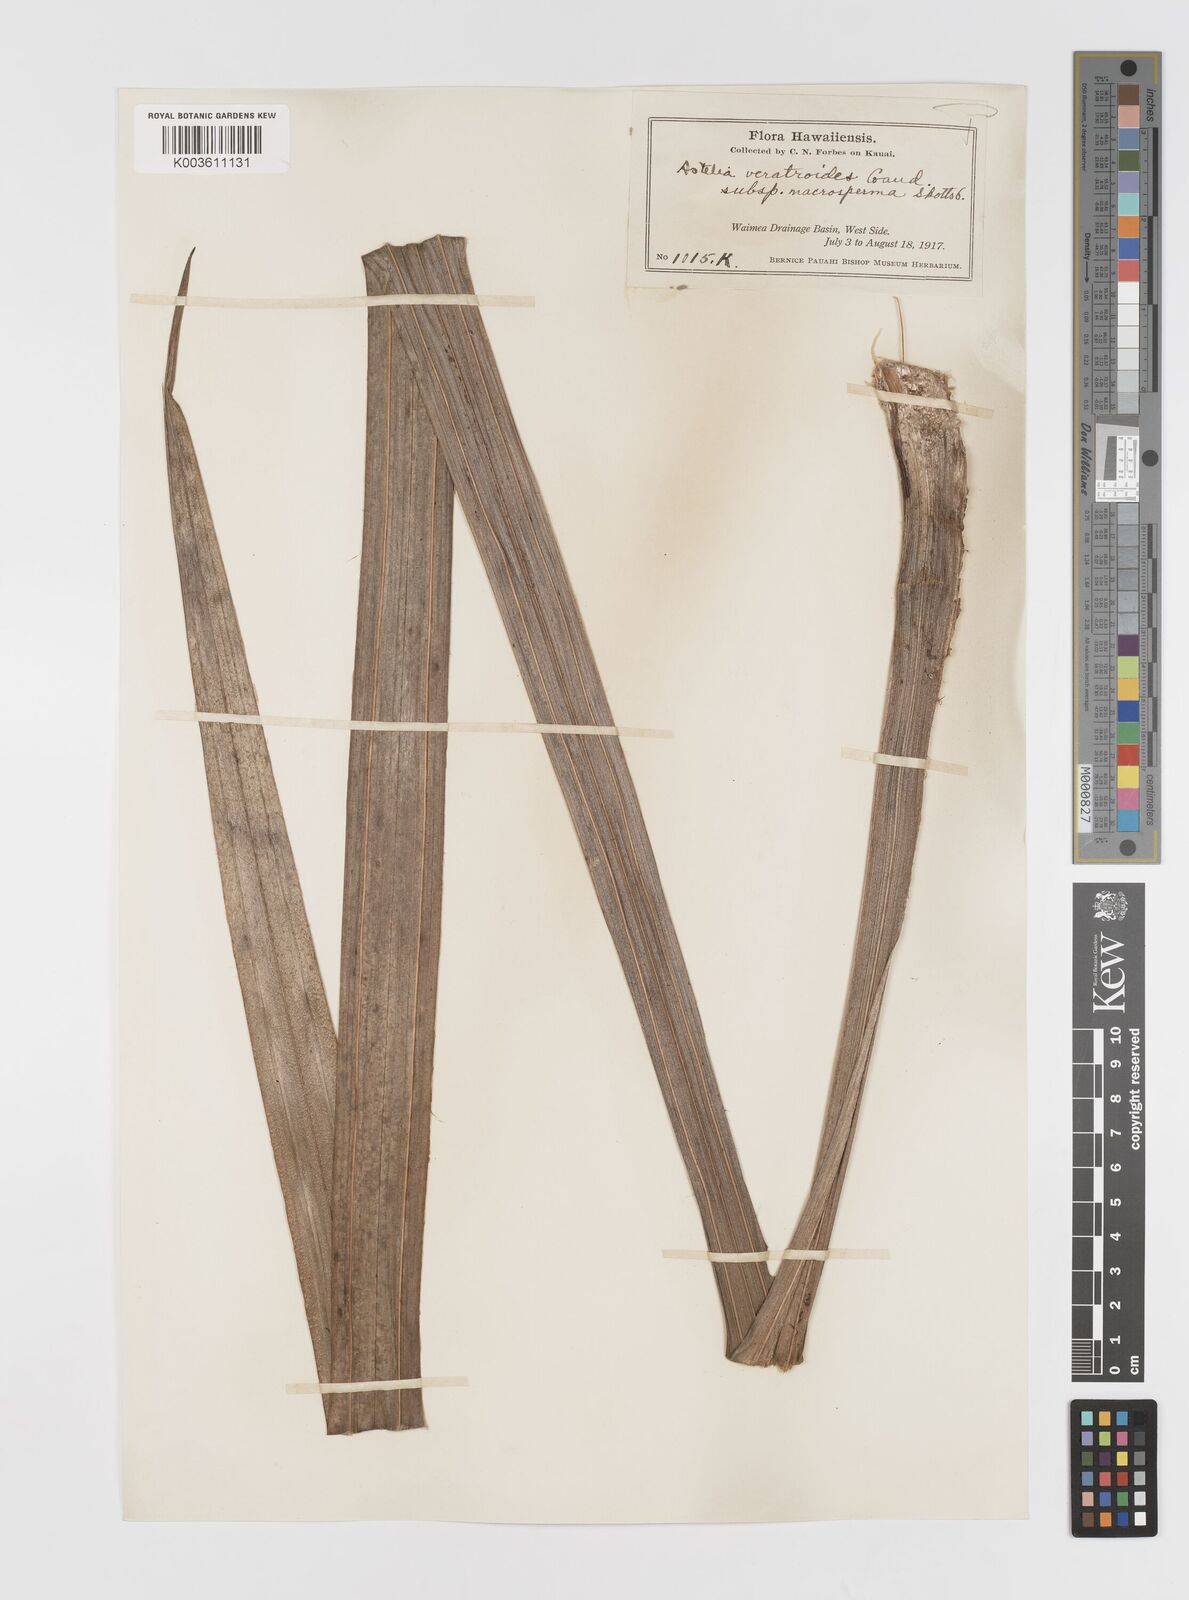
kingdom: Plantae
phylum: Tracheophyta
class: Liliopsida
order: Asparagales
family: Asteliaceae
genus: Astelia
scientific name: Astelia menziesiana
